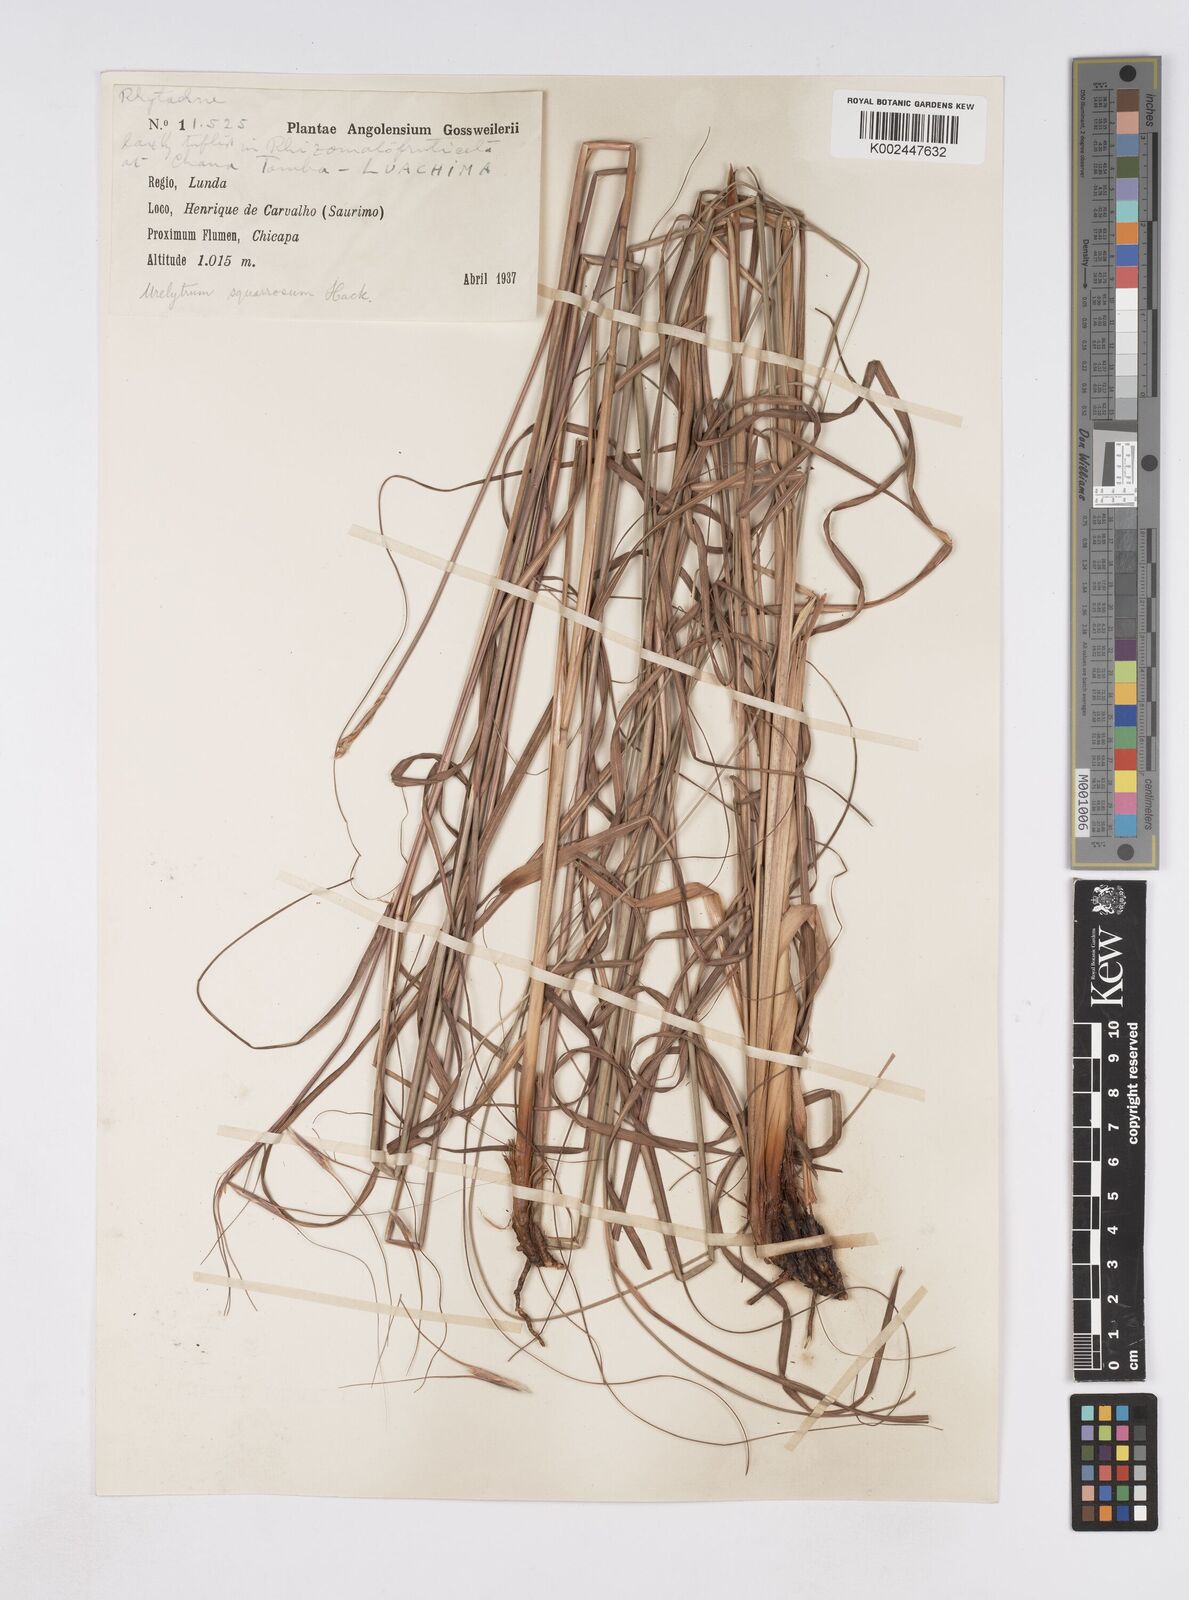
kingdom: Plantae
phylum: Tracheophyta
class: Liliopsida
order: Poales
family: Poaceae
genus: Urelytrum
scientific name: Urelytrum agropyroides
